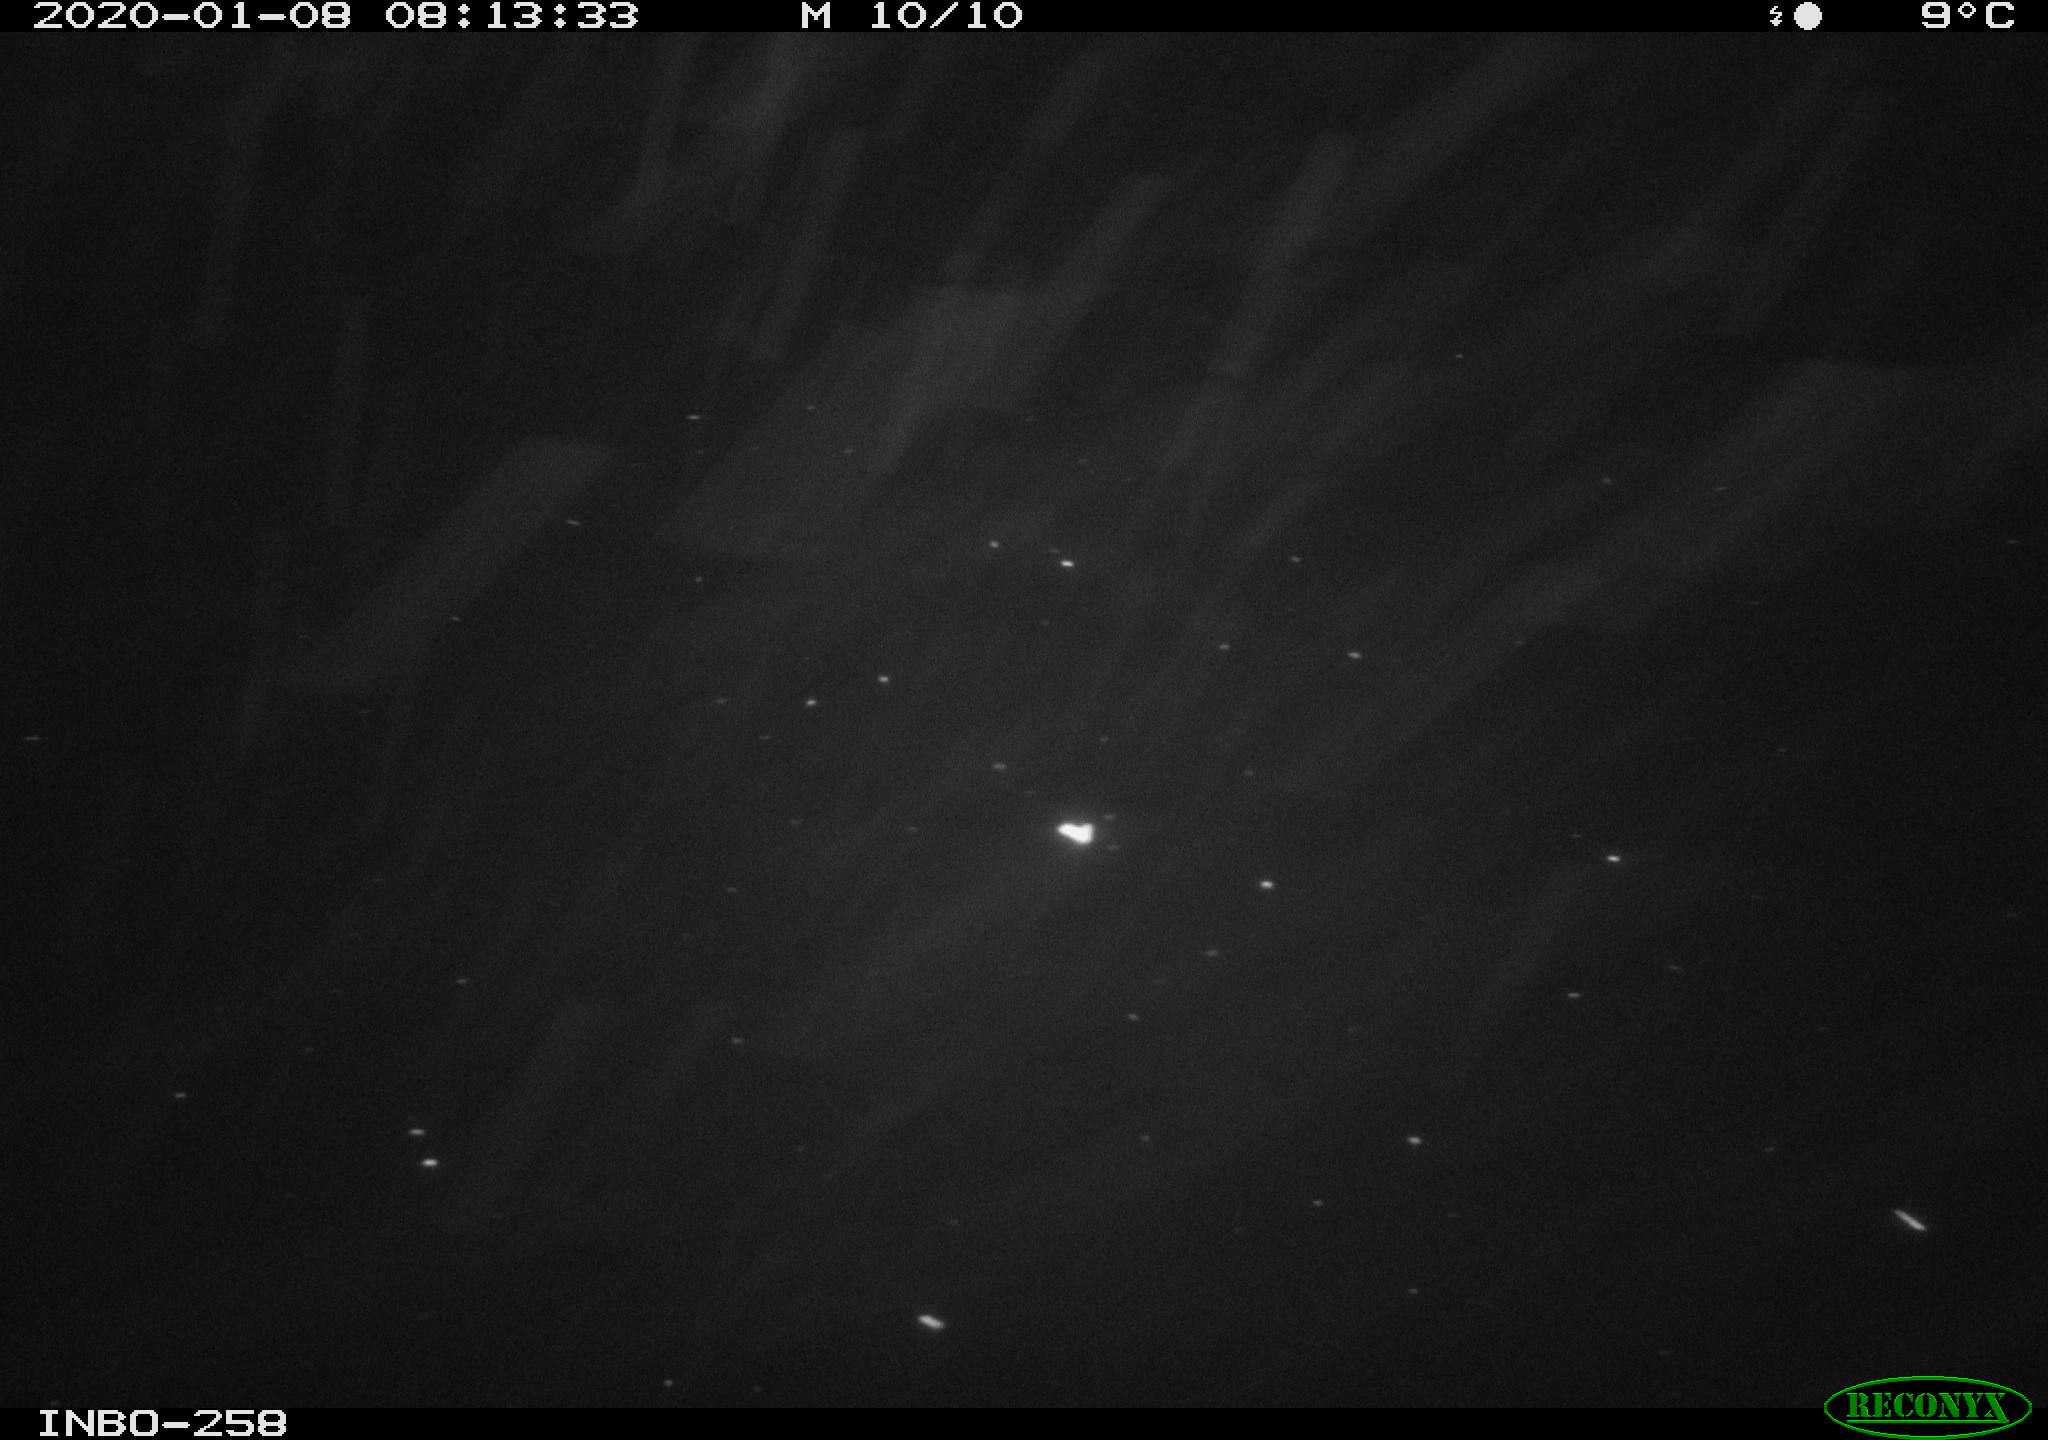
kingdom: Animalia
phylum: Chordata
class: Aves
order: Gruiformes
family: Rallidae
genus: Gallinula
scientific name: Gallinula chloropus
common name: Common moorhen
